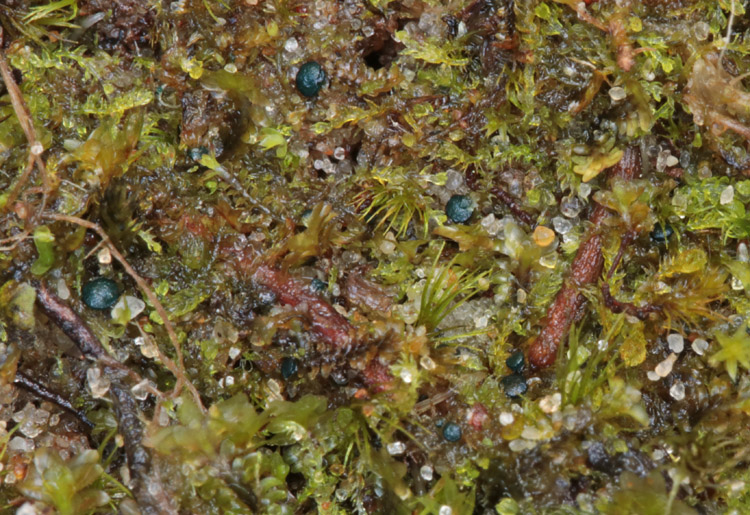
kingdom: Fungi
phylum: Ascomycota
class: Leotiomycetes
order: Leotiales
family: Mniaeciaceae
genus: Mniaecia
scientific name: Mniaecia jungermanniae
